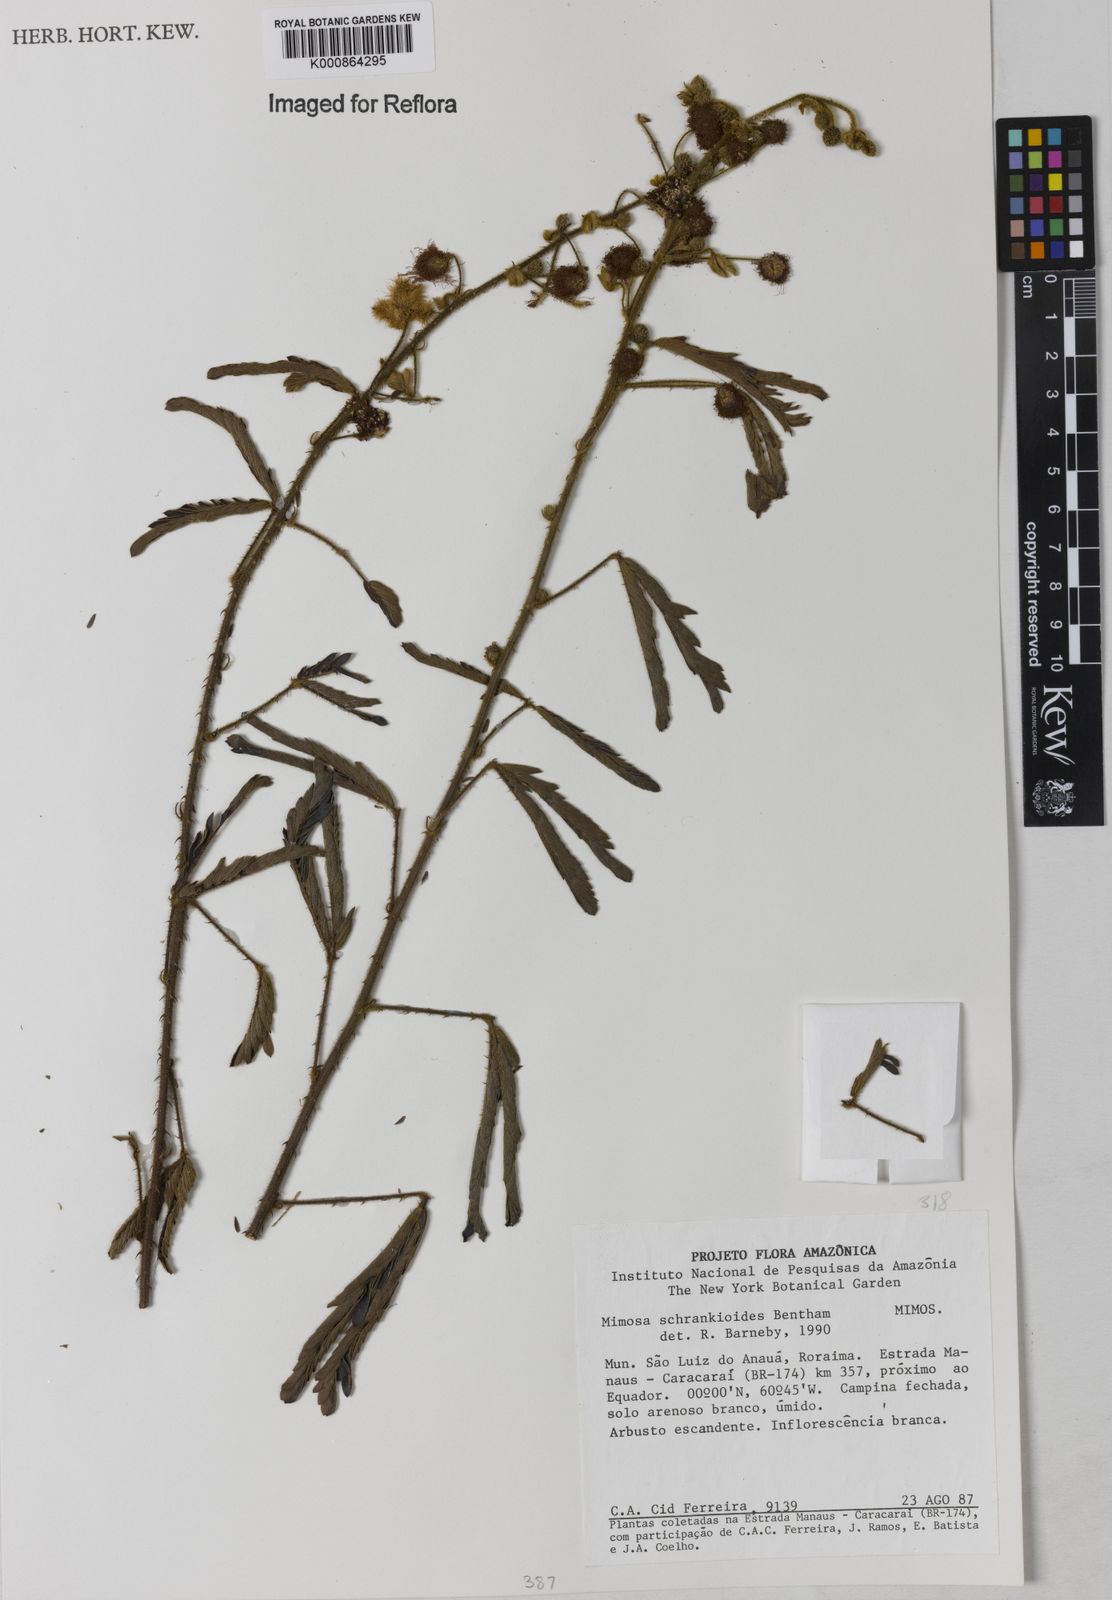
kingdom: Plantae
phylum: Tracheophyta
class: Magnoliopsida
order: Fabales
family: Fabaceae
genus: Mimosa
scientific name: Mimosa schrankioides
